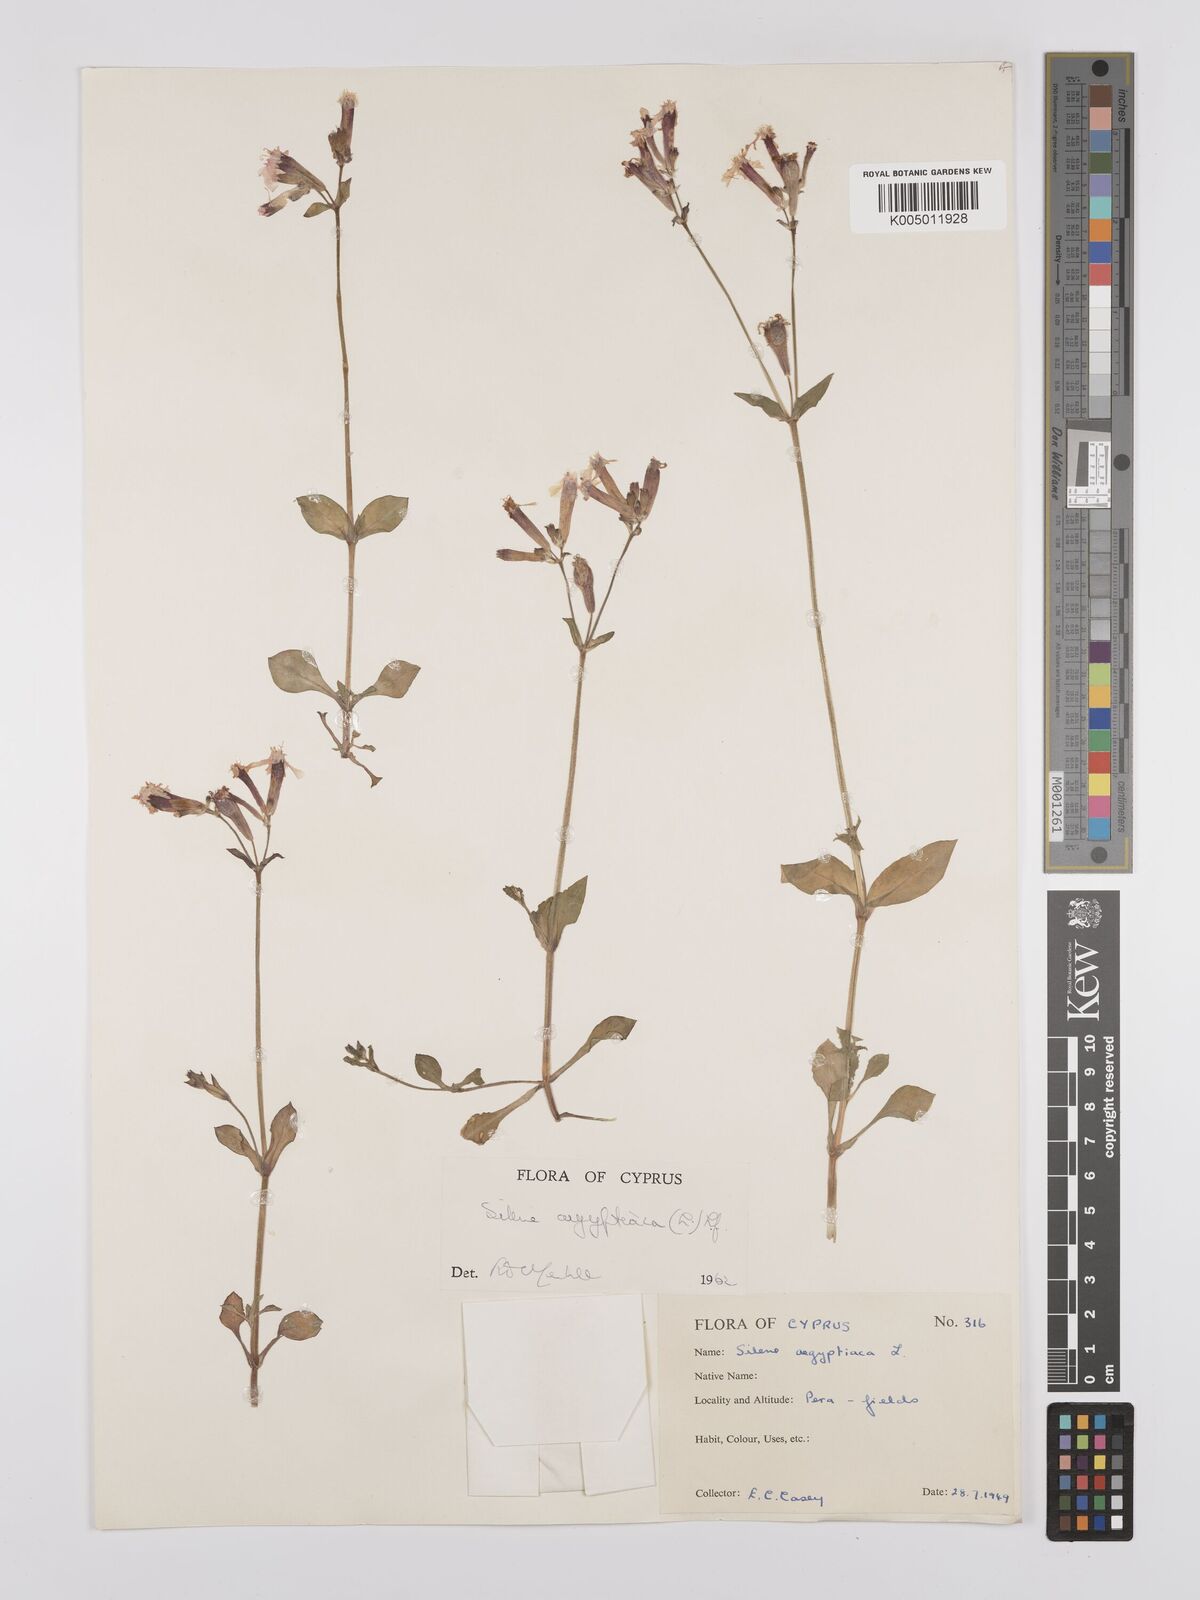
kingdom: Plantae
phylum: Tracheophyta
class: Magnoliopsida
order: Caryophyllales
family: Caryophyllaceae
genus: Silene
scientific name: Silene aegyptiaca
